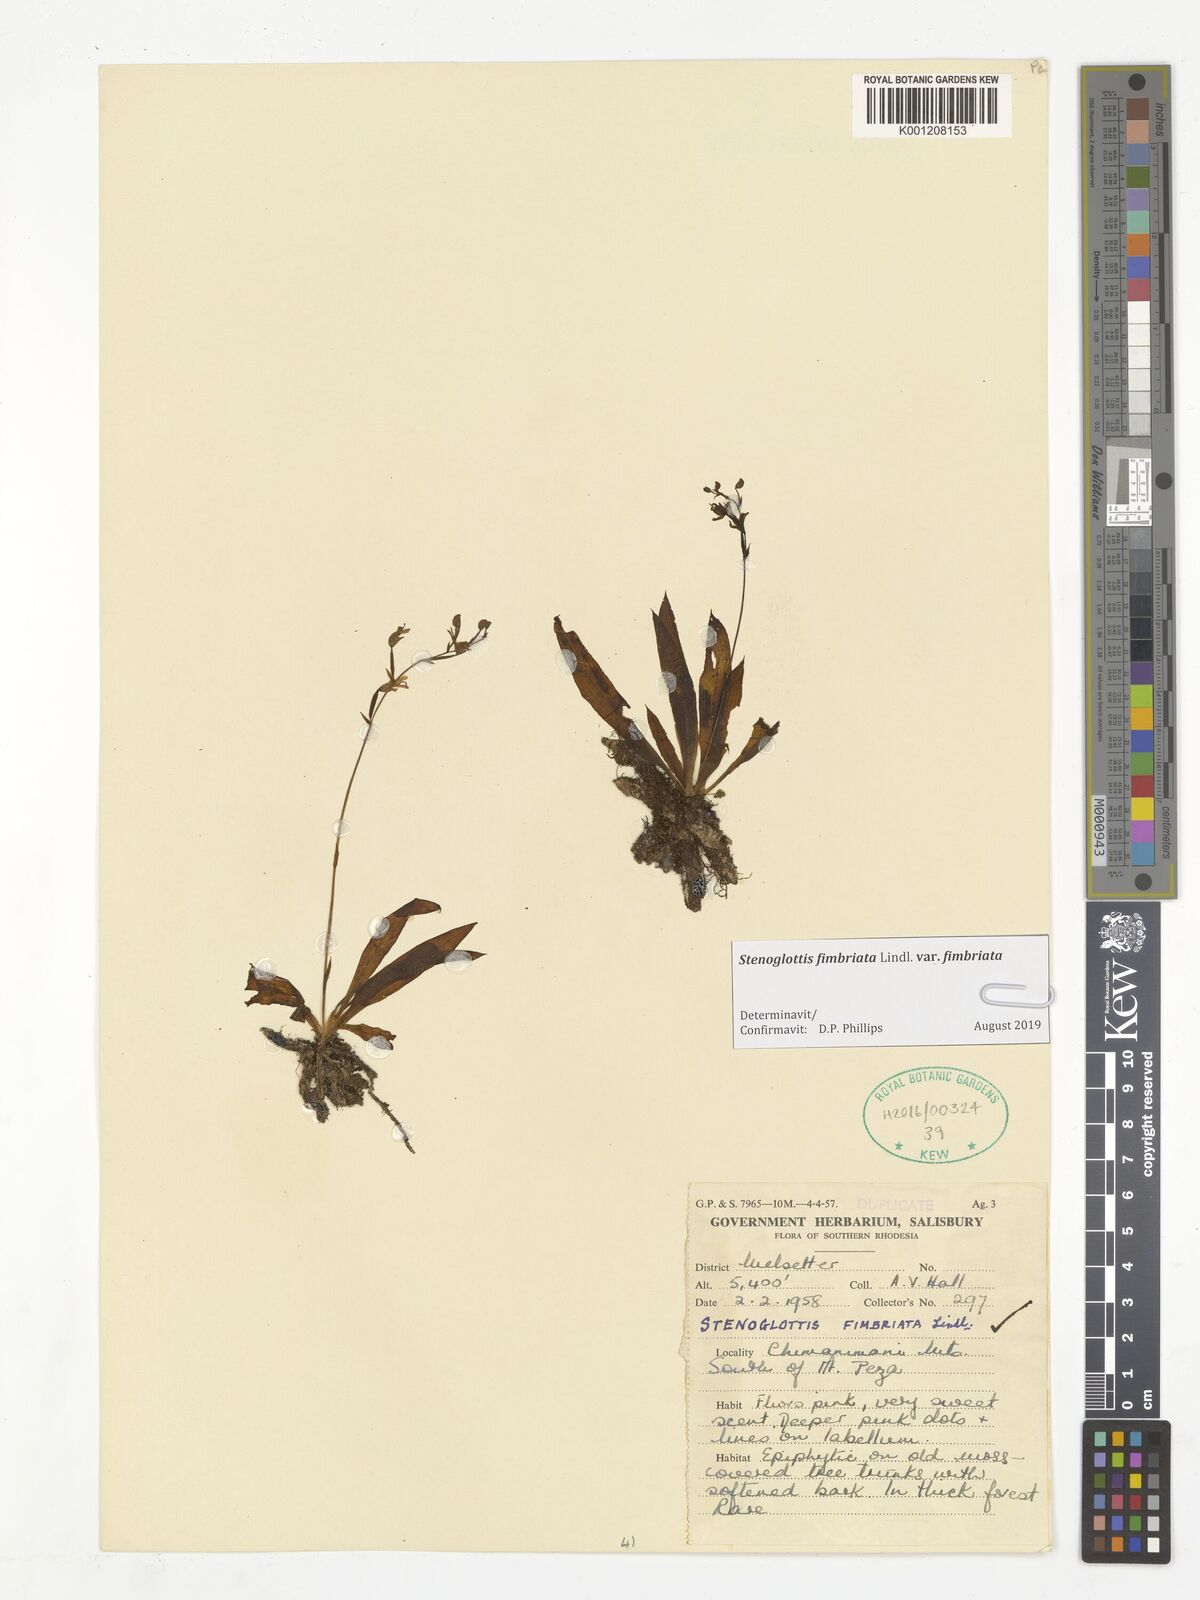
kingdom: Plantae
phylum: Tracheophyta
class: Liliopsida
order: Asparagales
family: Orchidaceae
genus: Stenoglottis
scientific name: Stenoglottis fimbriata
